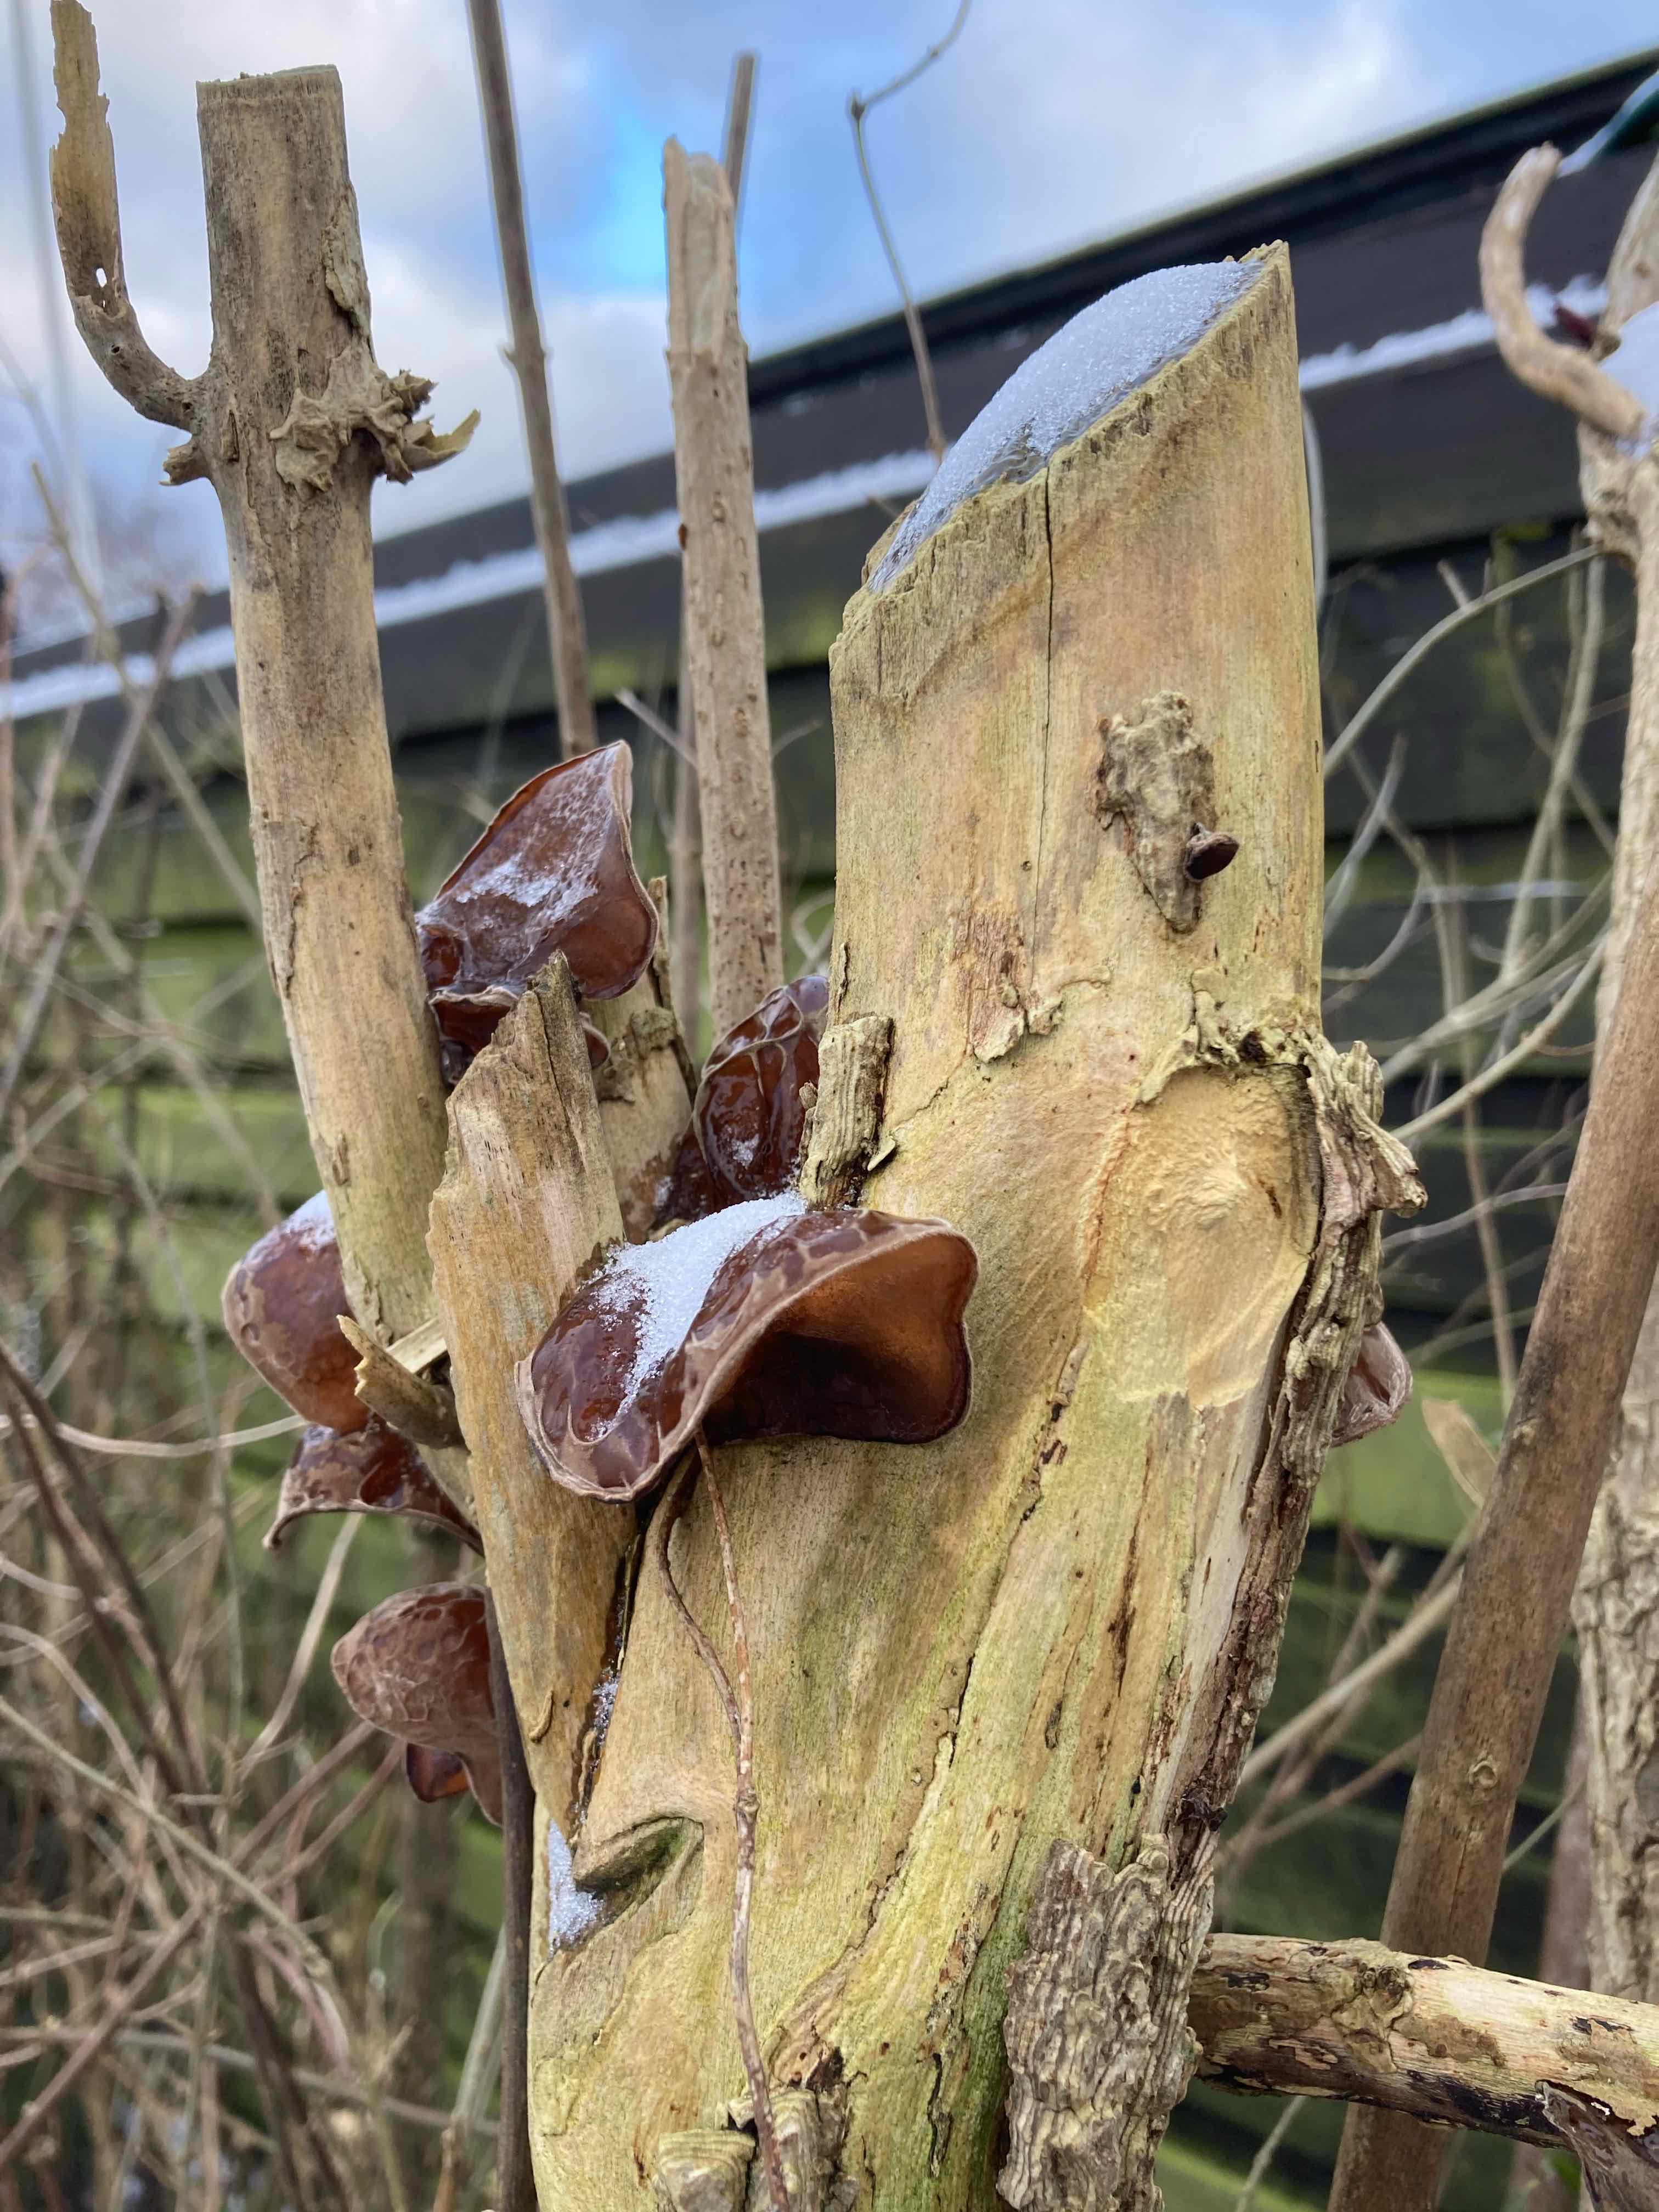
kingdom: Fungi
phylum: Basidiomycota
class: Agaricomycetes
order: Auriculariales
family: Auriculariaceae
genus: Auricularia
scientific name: Auricularia auricula-judae
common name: almindelig judasøre
